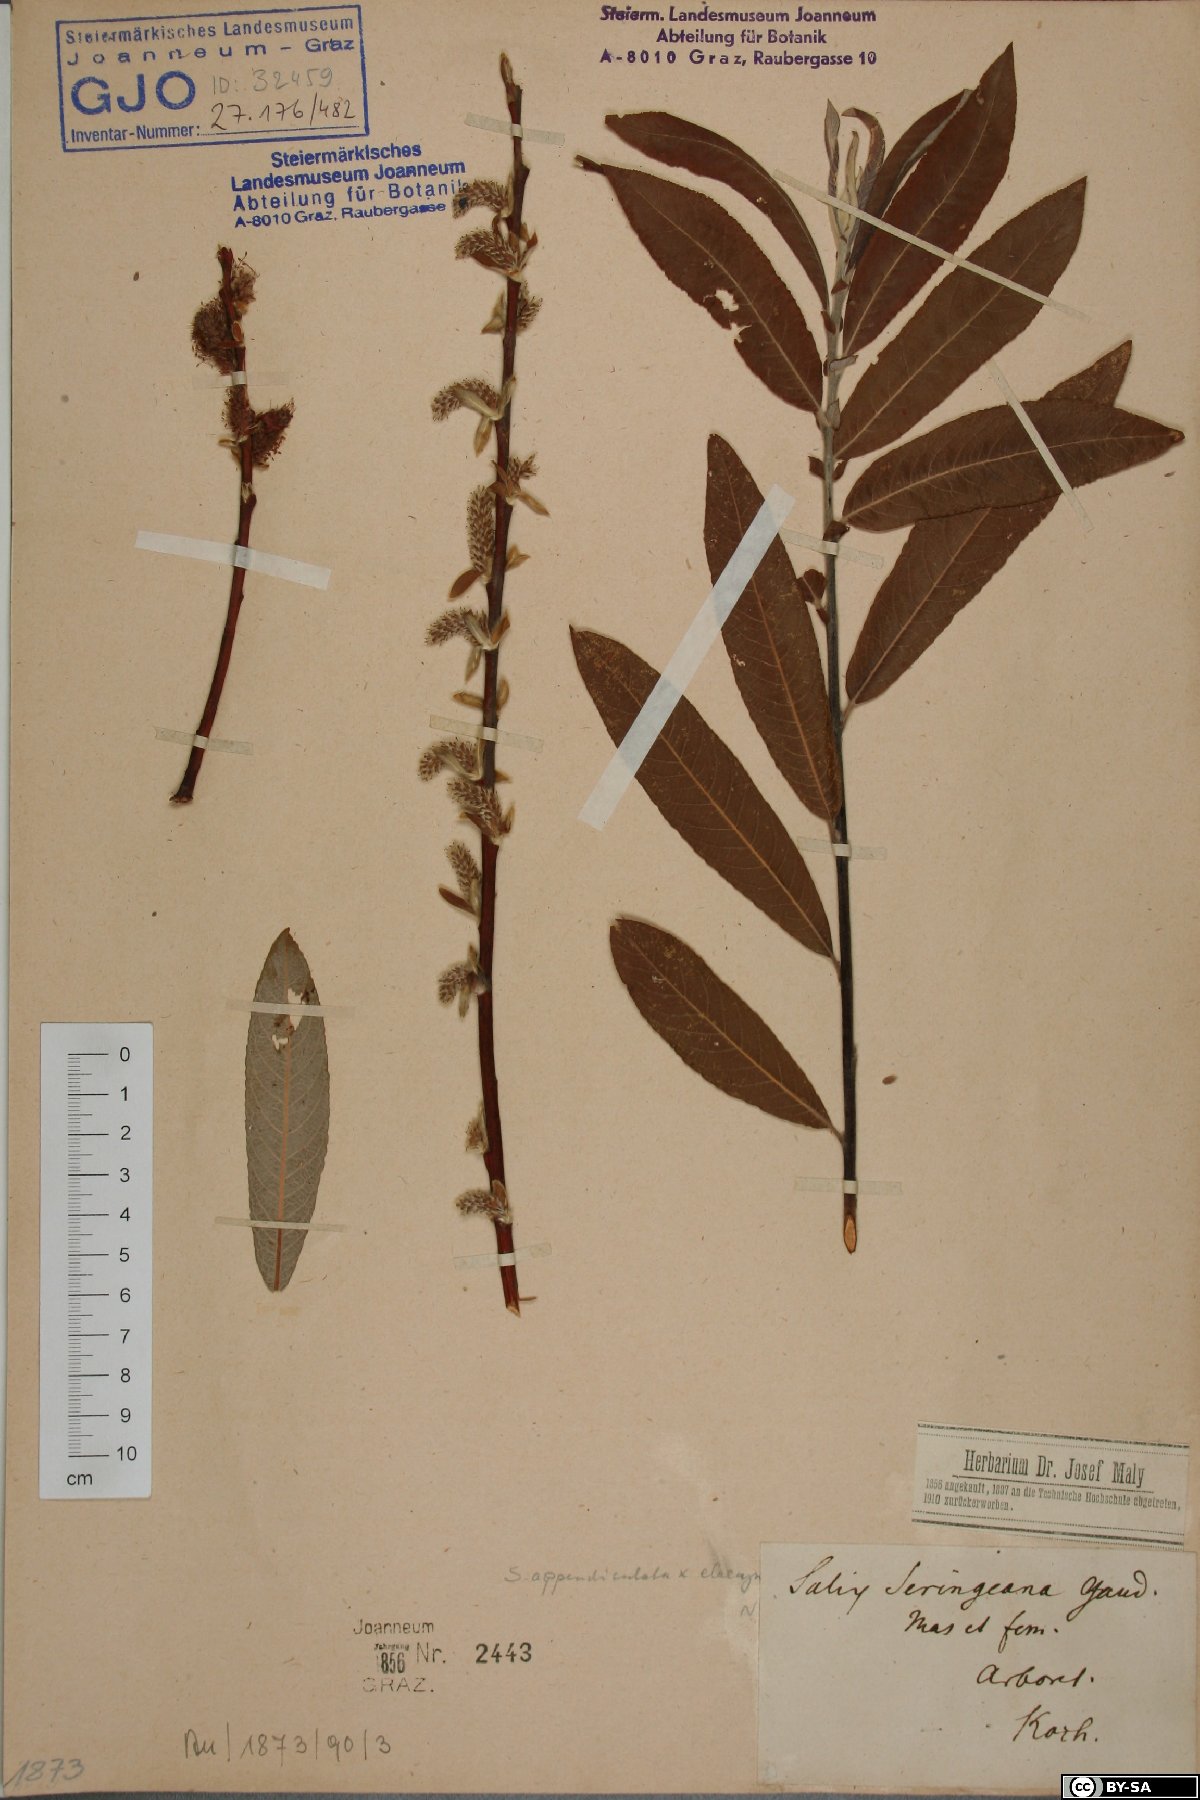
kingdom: Plantae
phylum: Tracheophyta
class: Magnoliopsida
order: Malpighiales
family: Salicaceae
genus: Salix
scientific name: Salix seringeana
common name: Seringe willow
